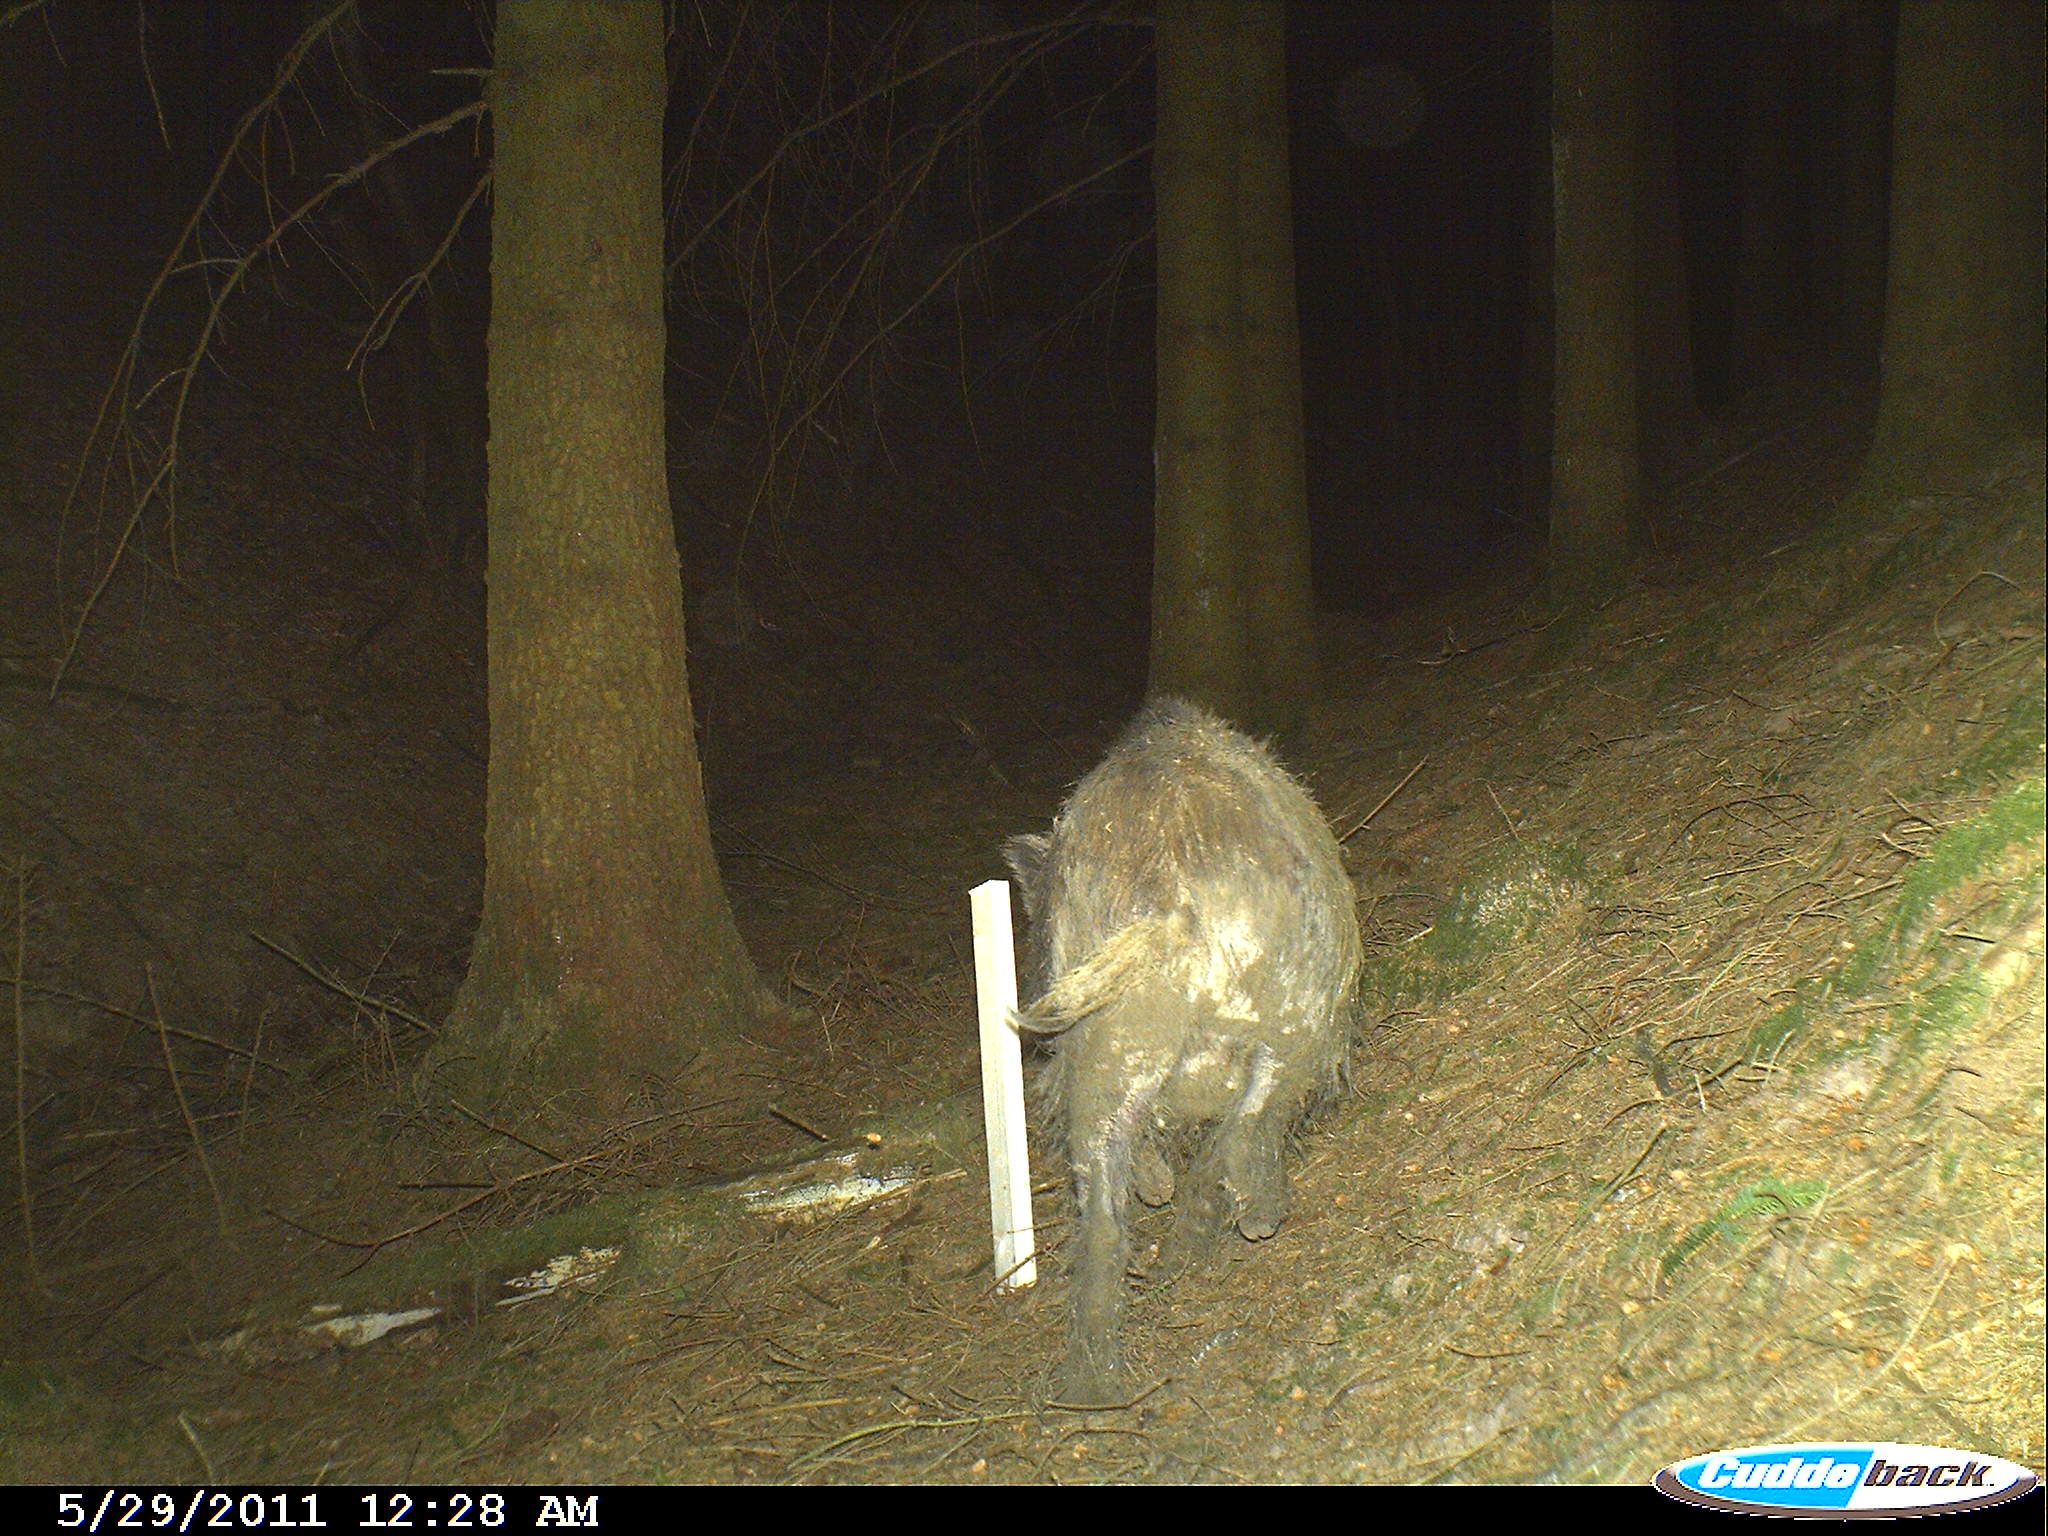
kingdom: Animalia
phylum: Chordata
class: Mammalia
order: Artiodactyla
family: Suidae
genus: Sus
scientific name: Sus scrofa
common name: Wild boar
